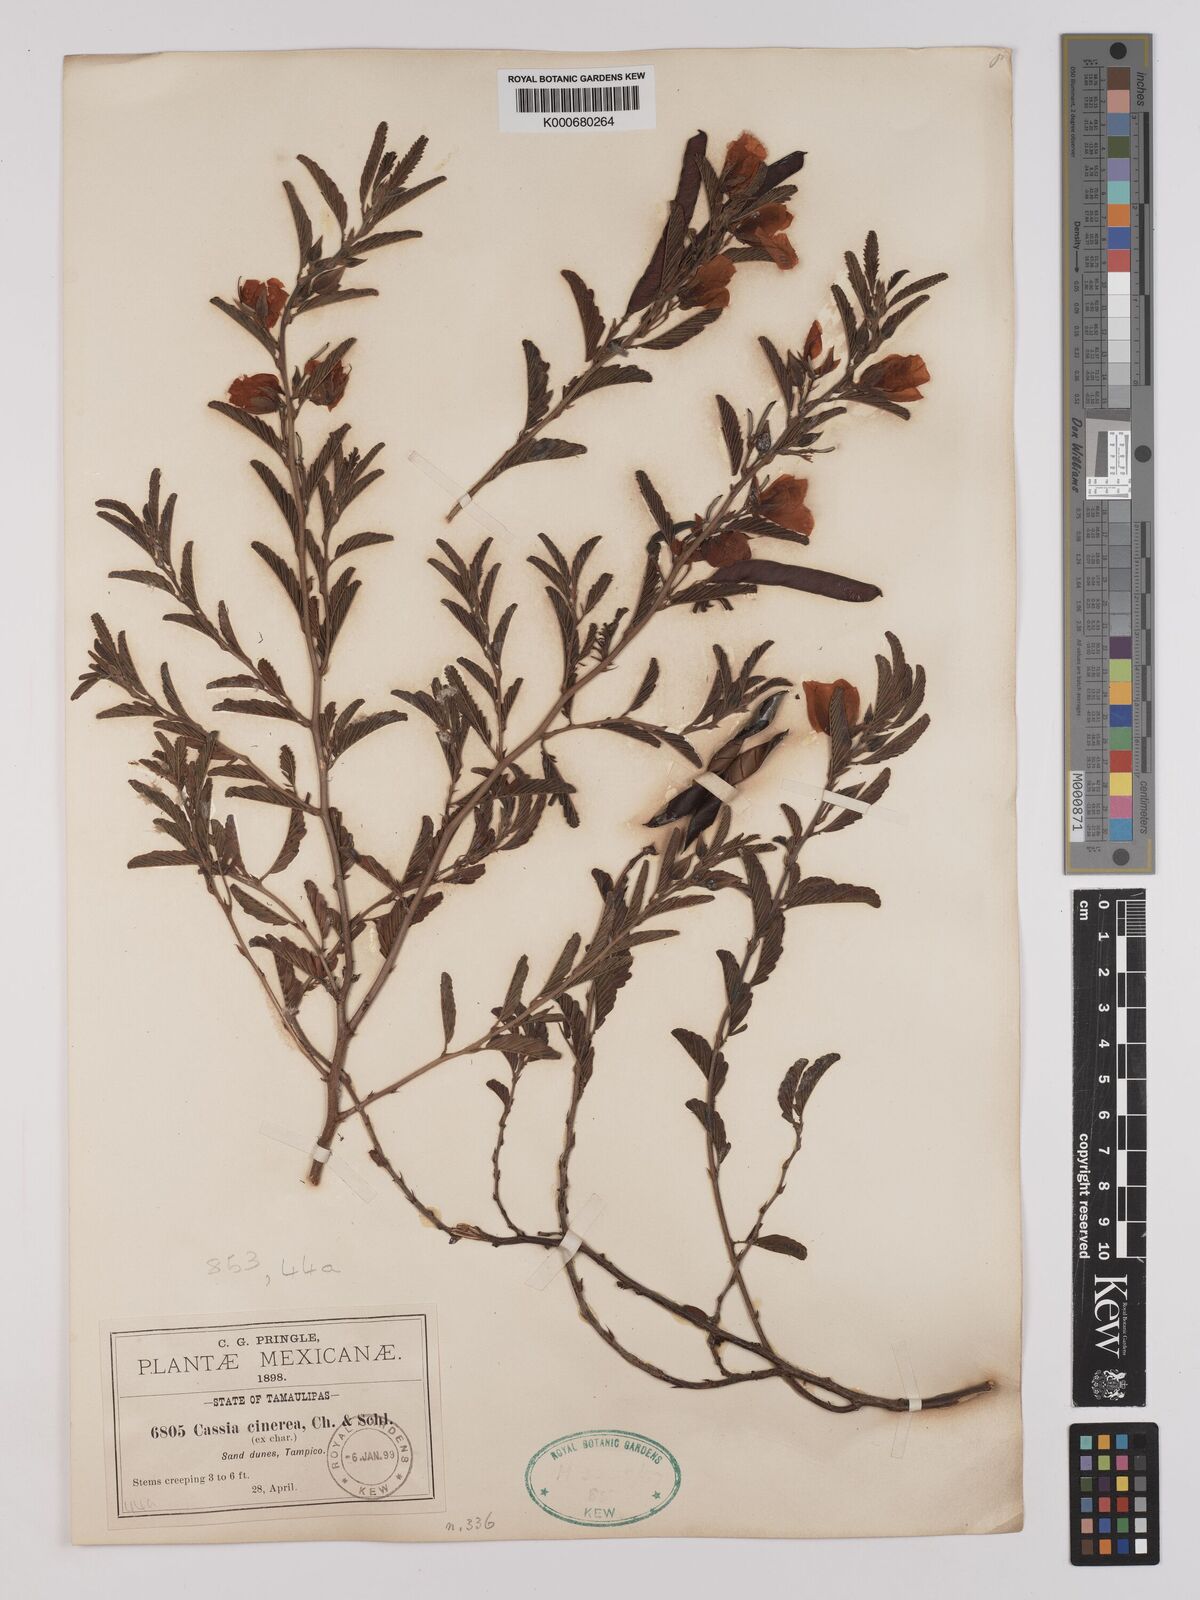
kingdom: Plantae
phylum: Tracheophyta
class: Magnoliopsida
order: Fabales
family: Fabaceae
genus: Chamaecrista
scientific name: Chamaecrista chamaecristoides
